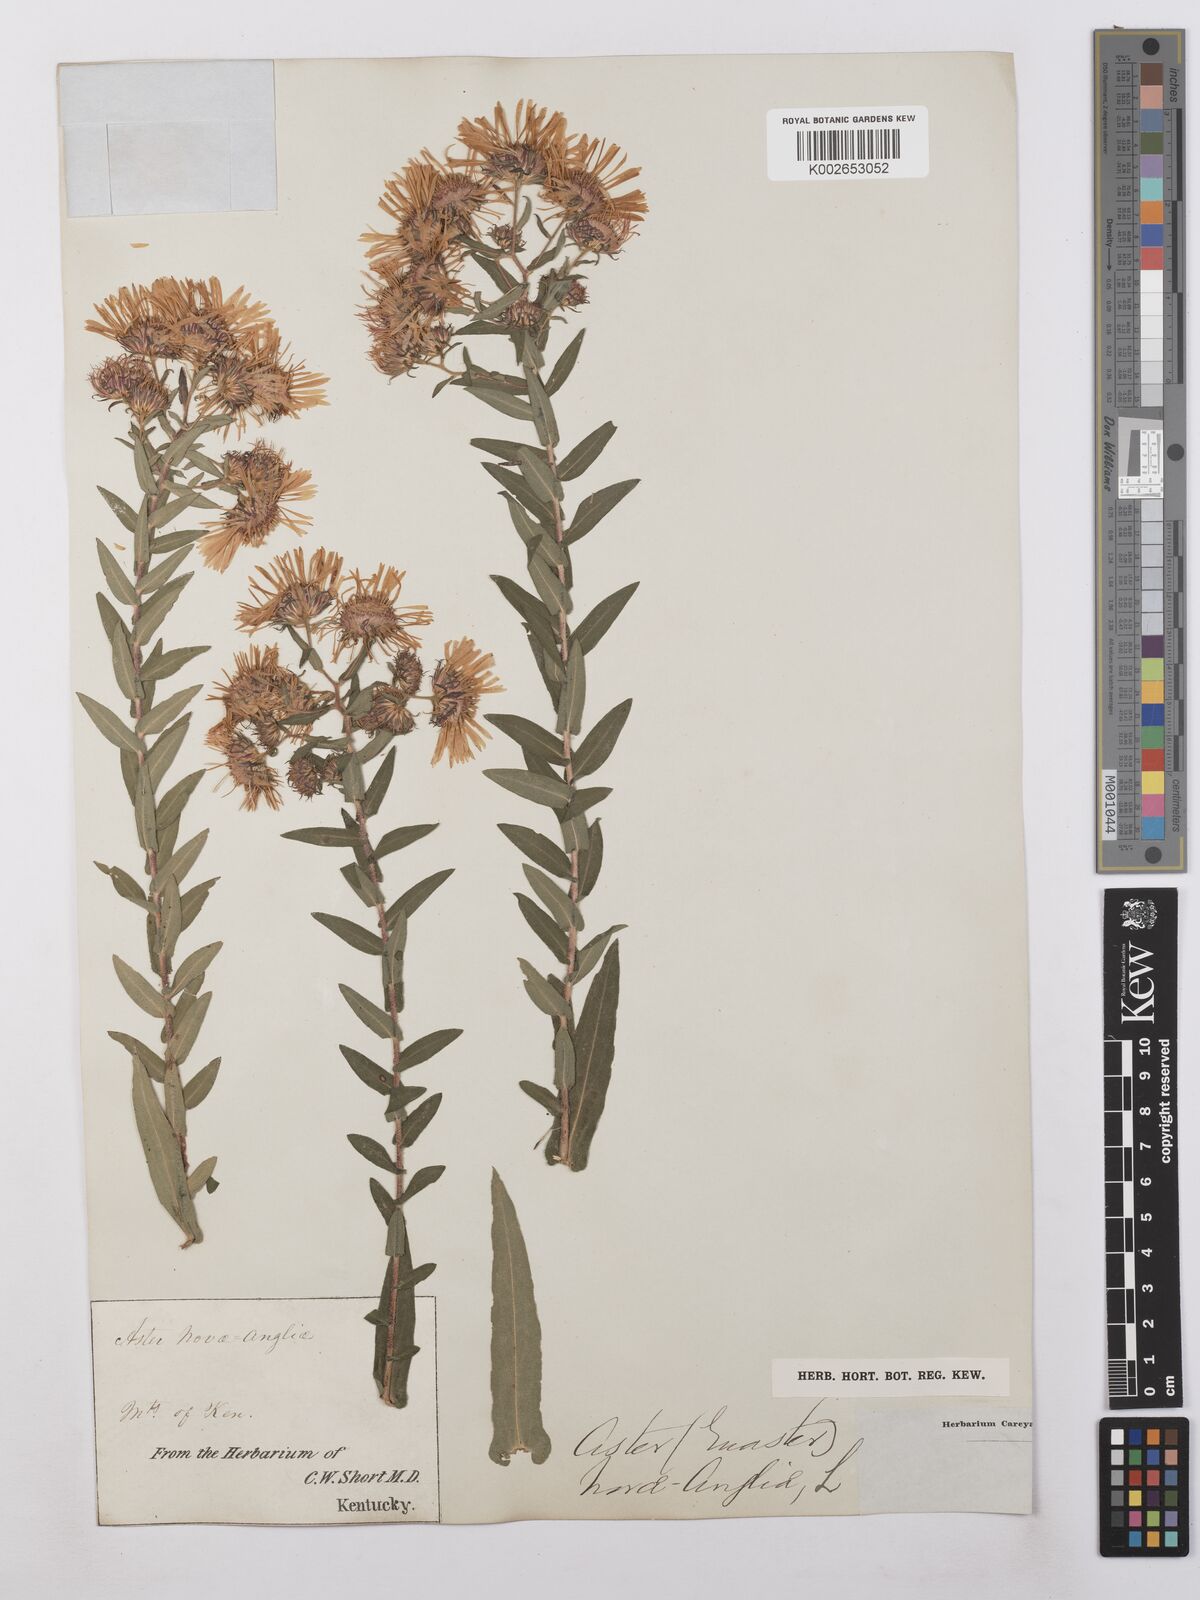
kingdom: Plantae
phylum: Tracheophyta
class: Magnoliopsida
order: Asterales
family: Asteraceae
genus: Symphyotrichum
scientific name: Symphyotrichum novae-angliae
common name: Michaelmas daisy
